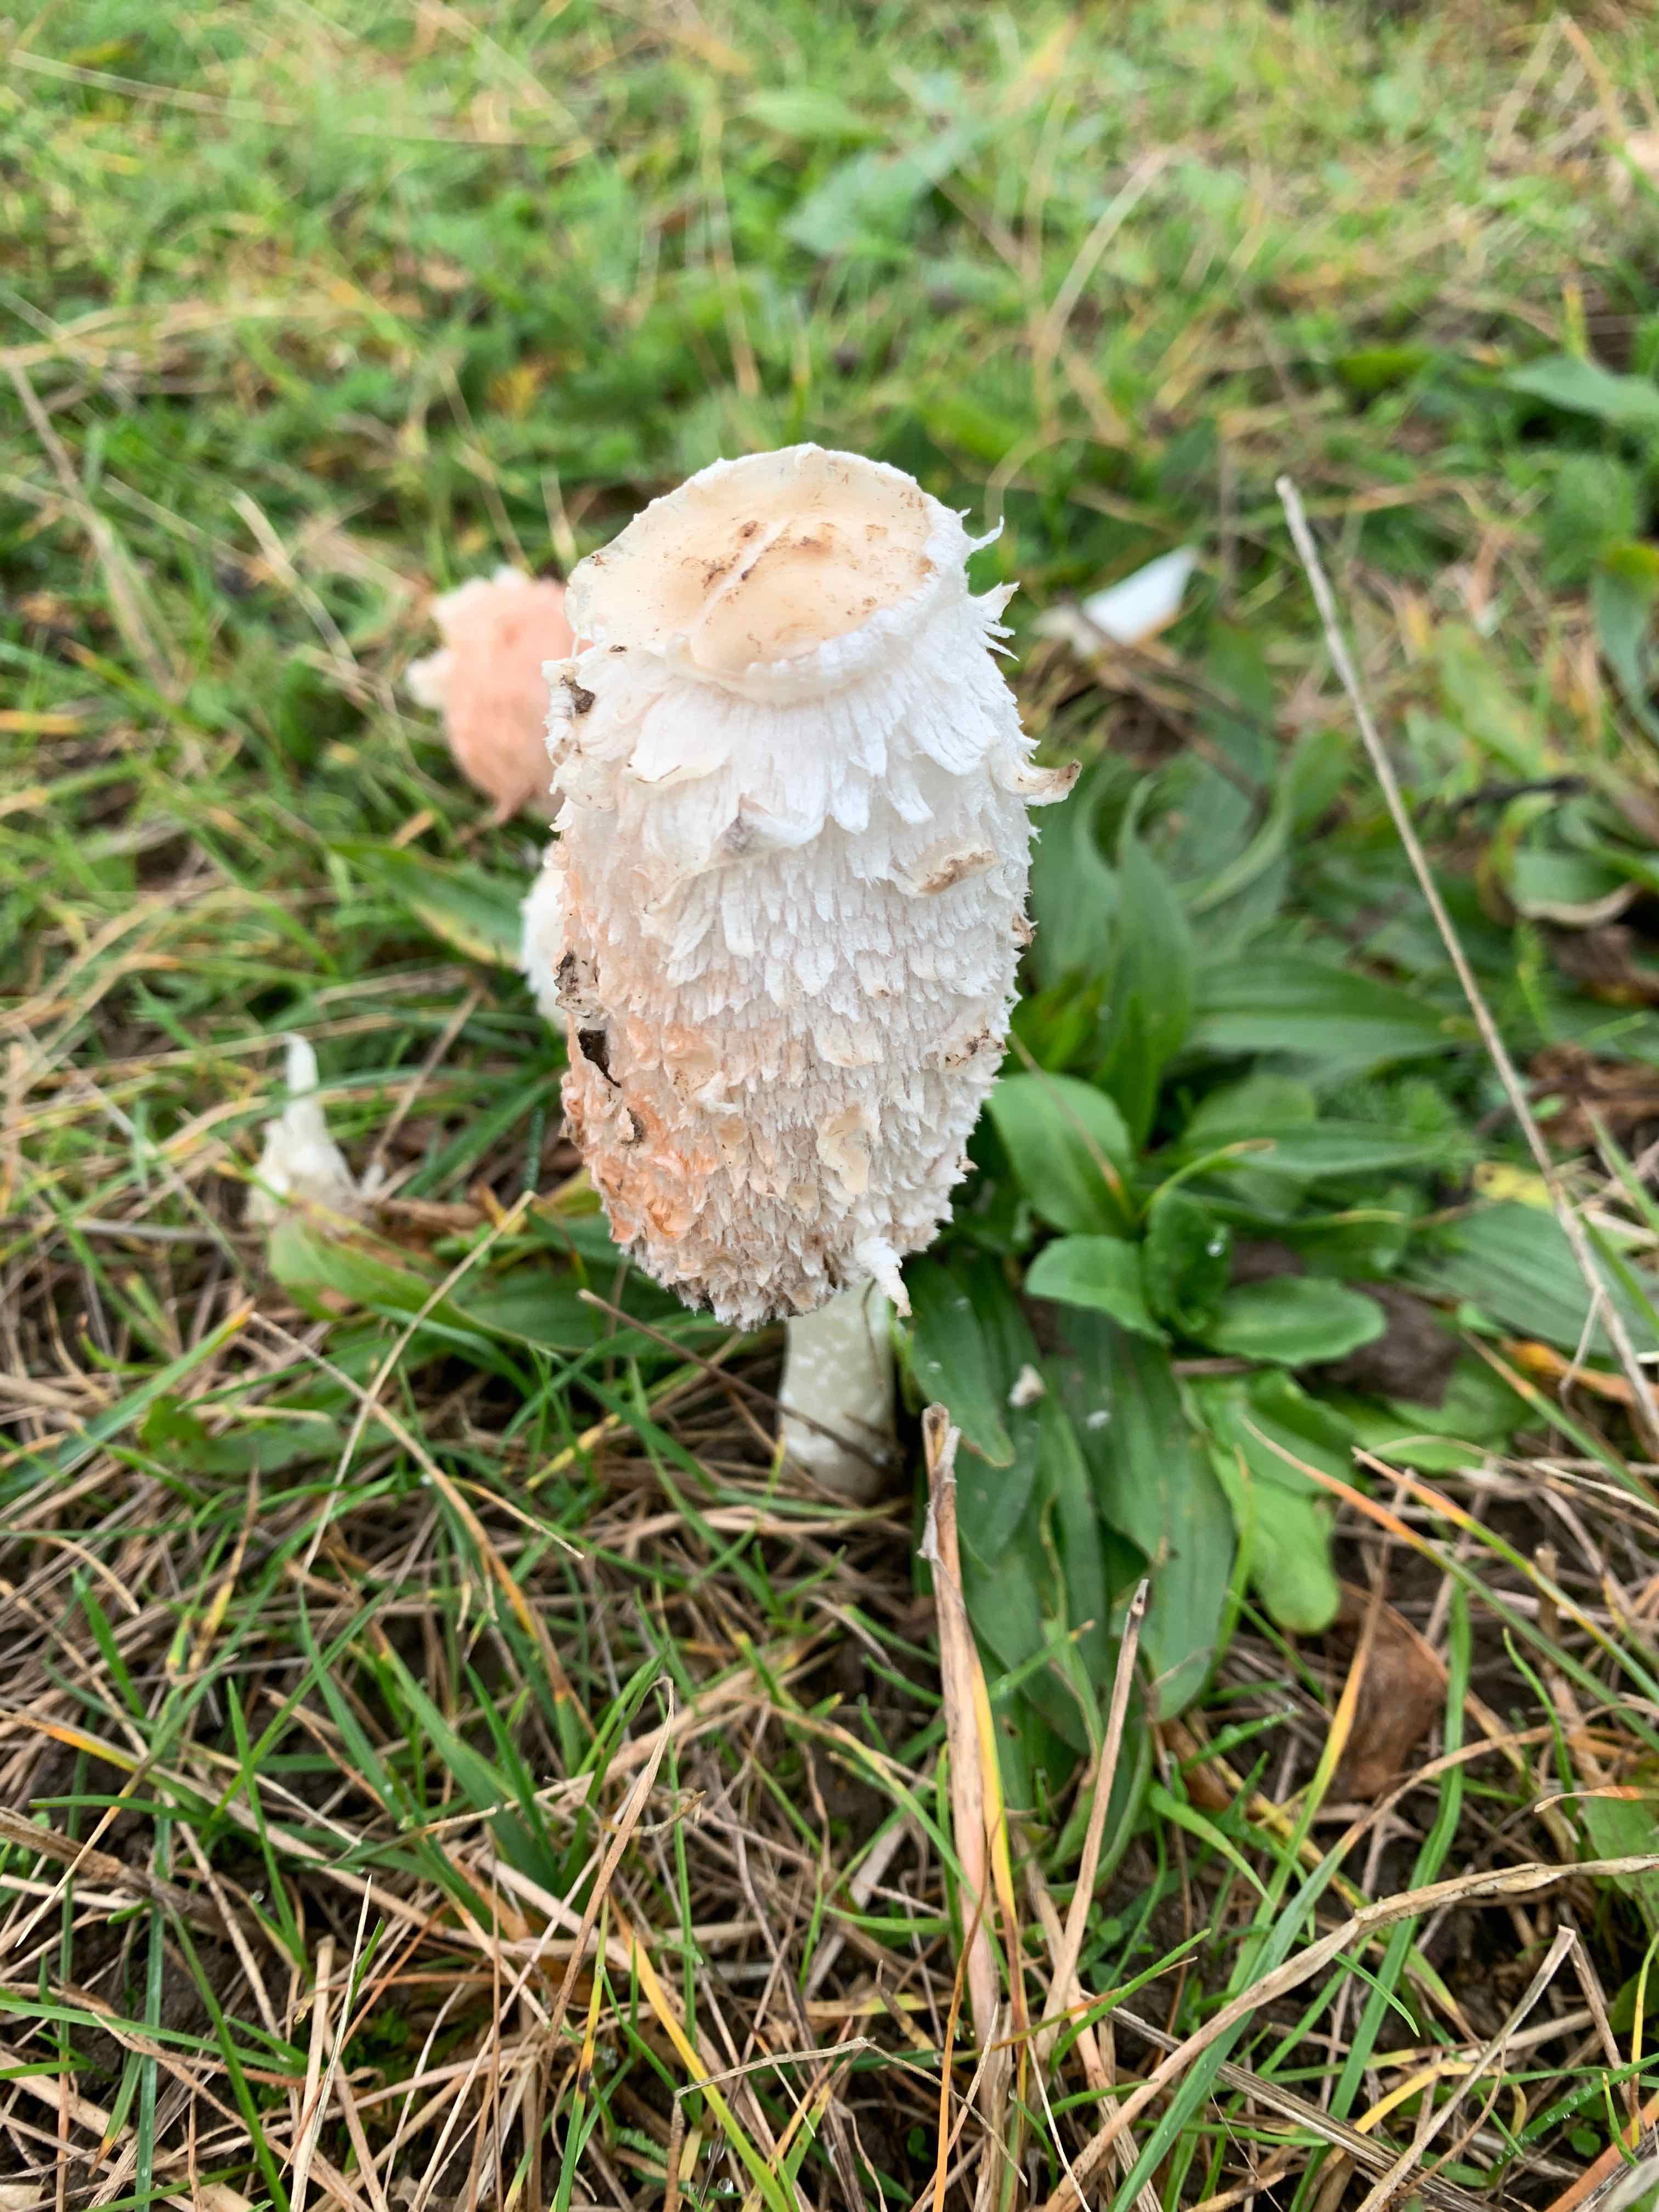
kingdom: Fungi
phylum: Basidiomycota
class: Agaricomycetes
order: Agaricales
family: Agaricaceae
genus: Coprinus
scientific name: Coprinus comatus
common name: stor parykhat
